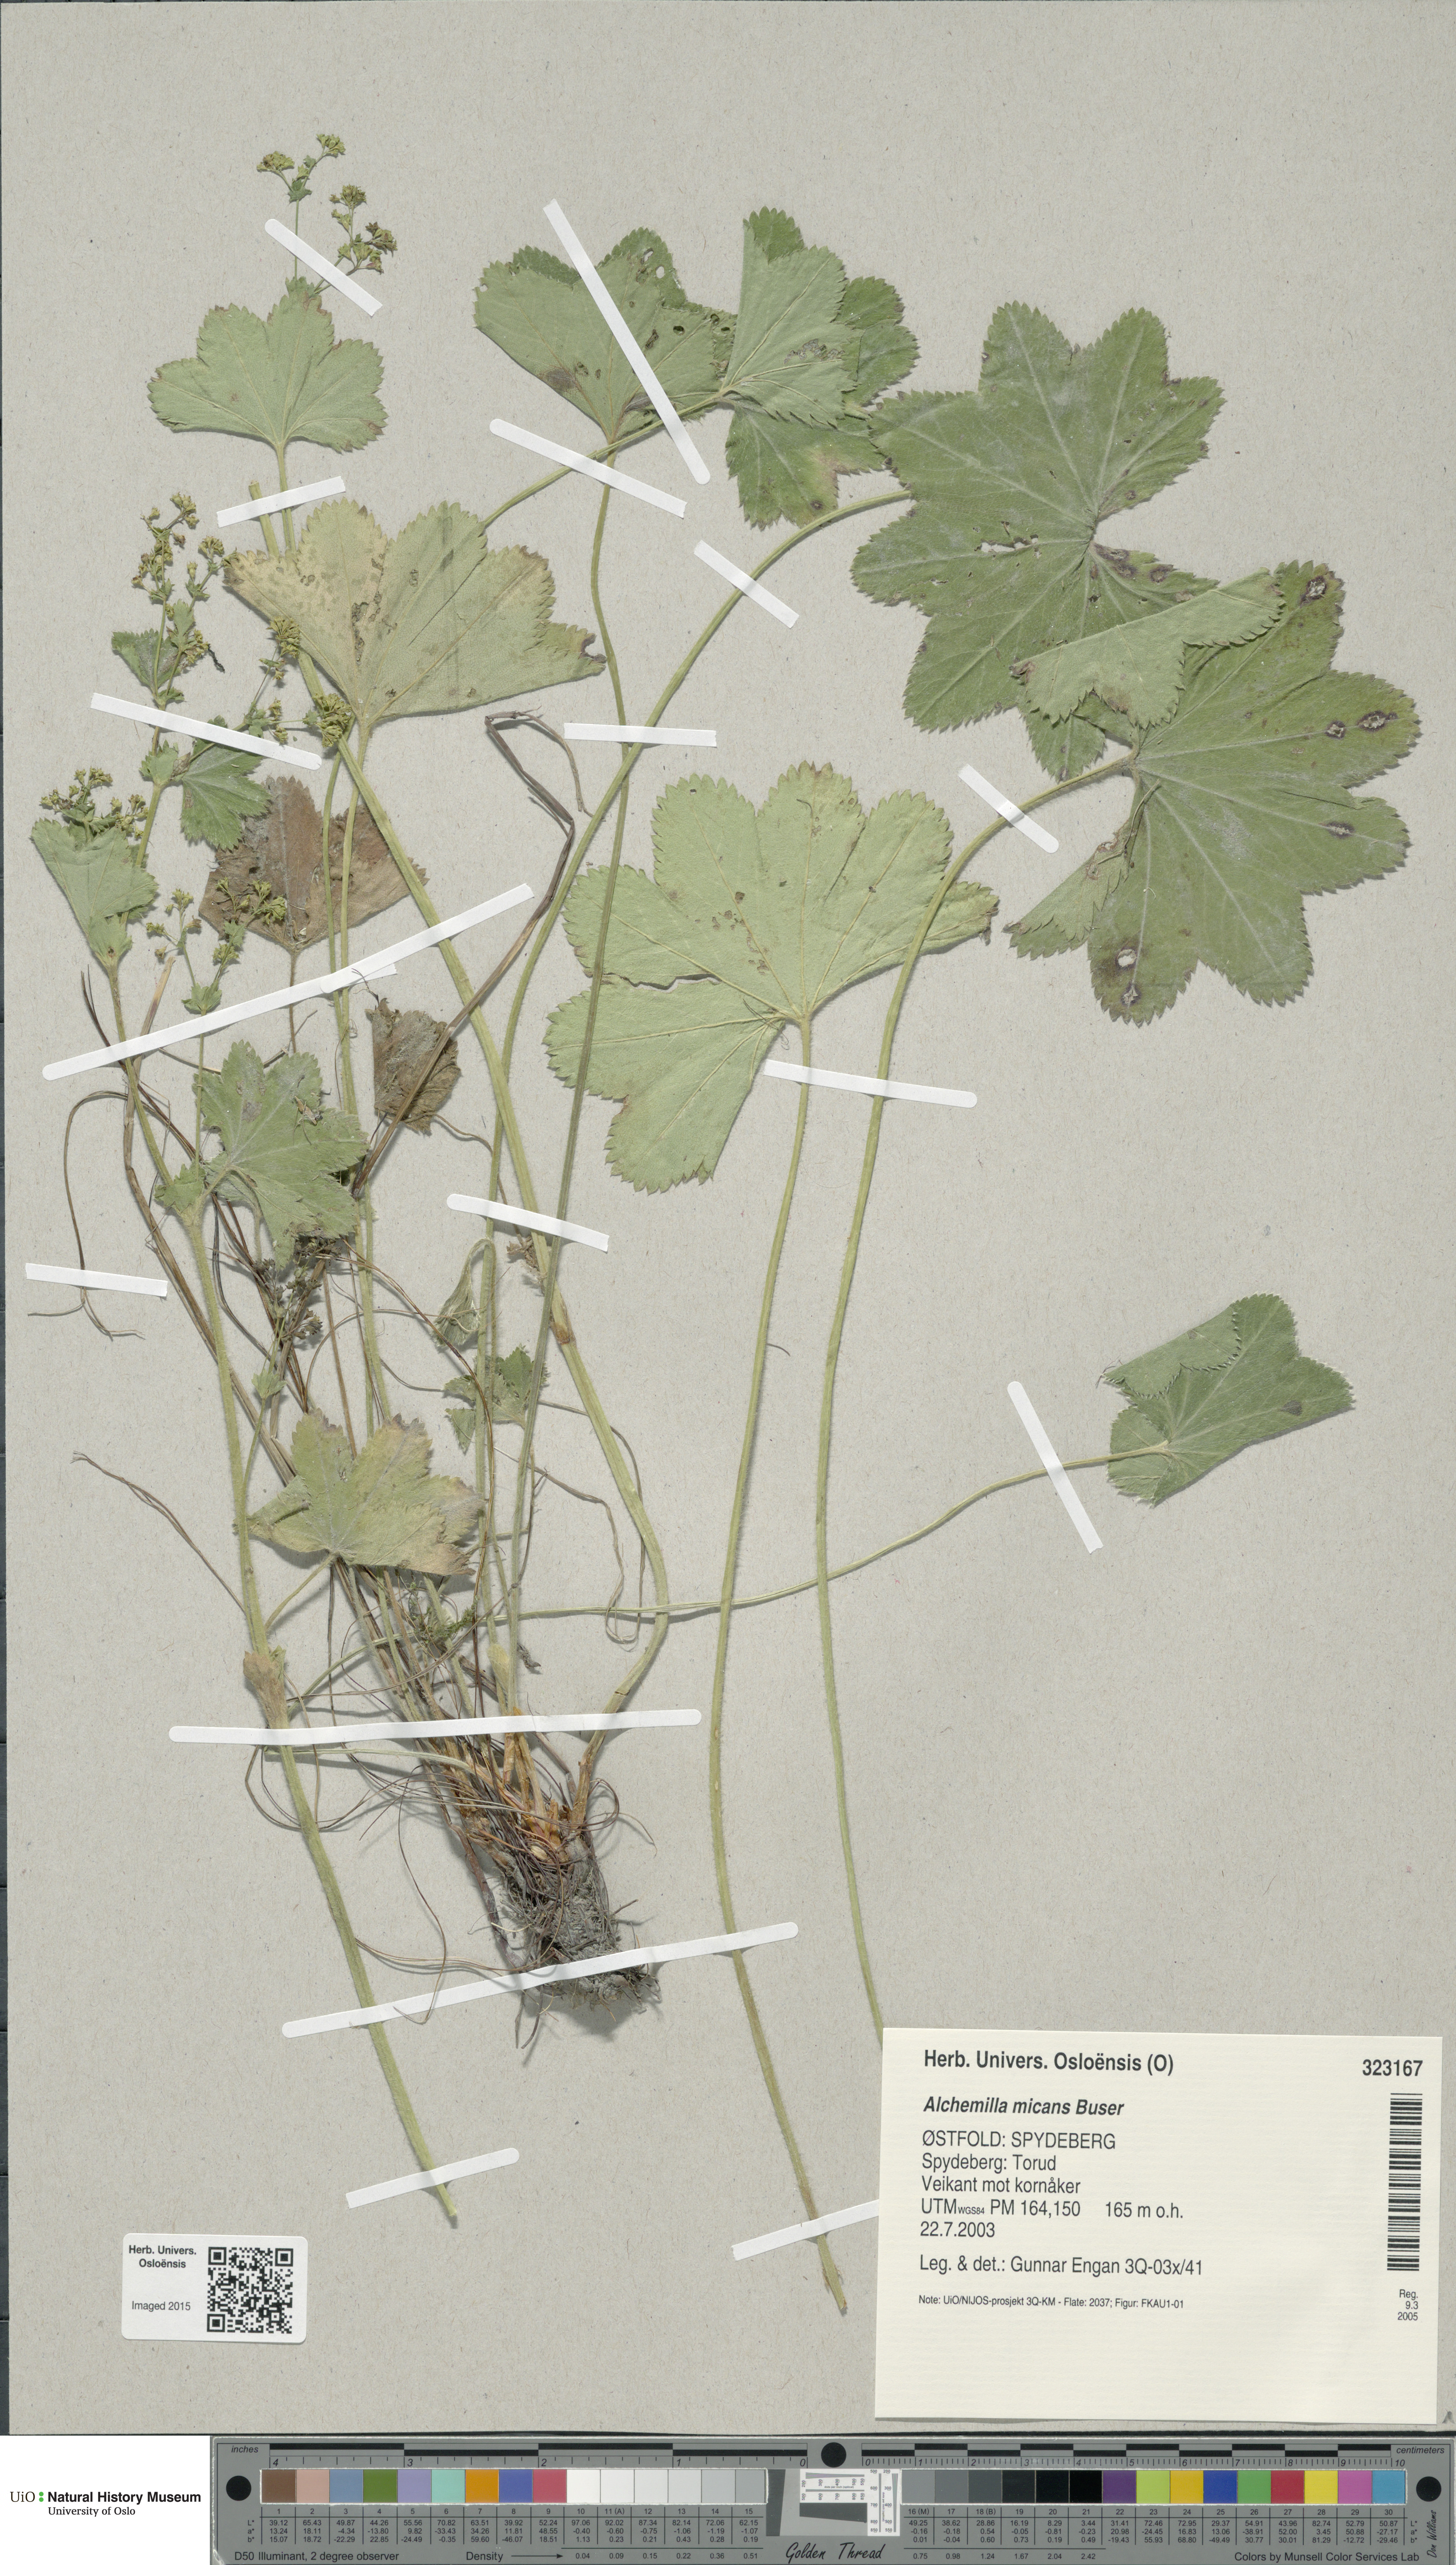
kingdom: Plantae
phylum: Tracheophyta
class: Magnoliopsida
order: Rosales
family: Rosaceae
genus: Alchemilla
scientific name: Alchemilla micans
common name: Gleaming lady's mantle
